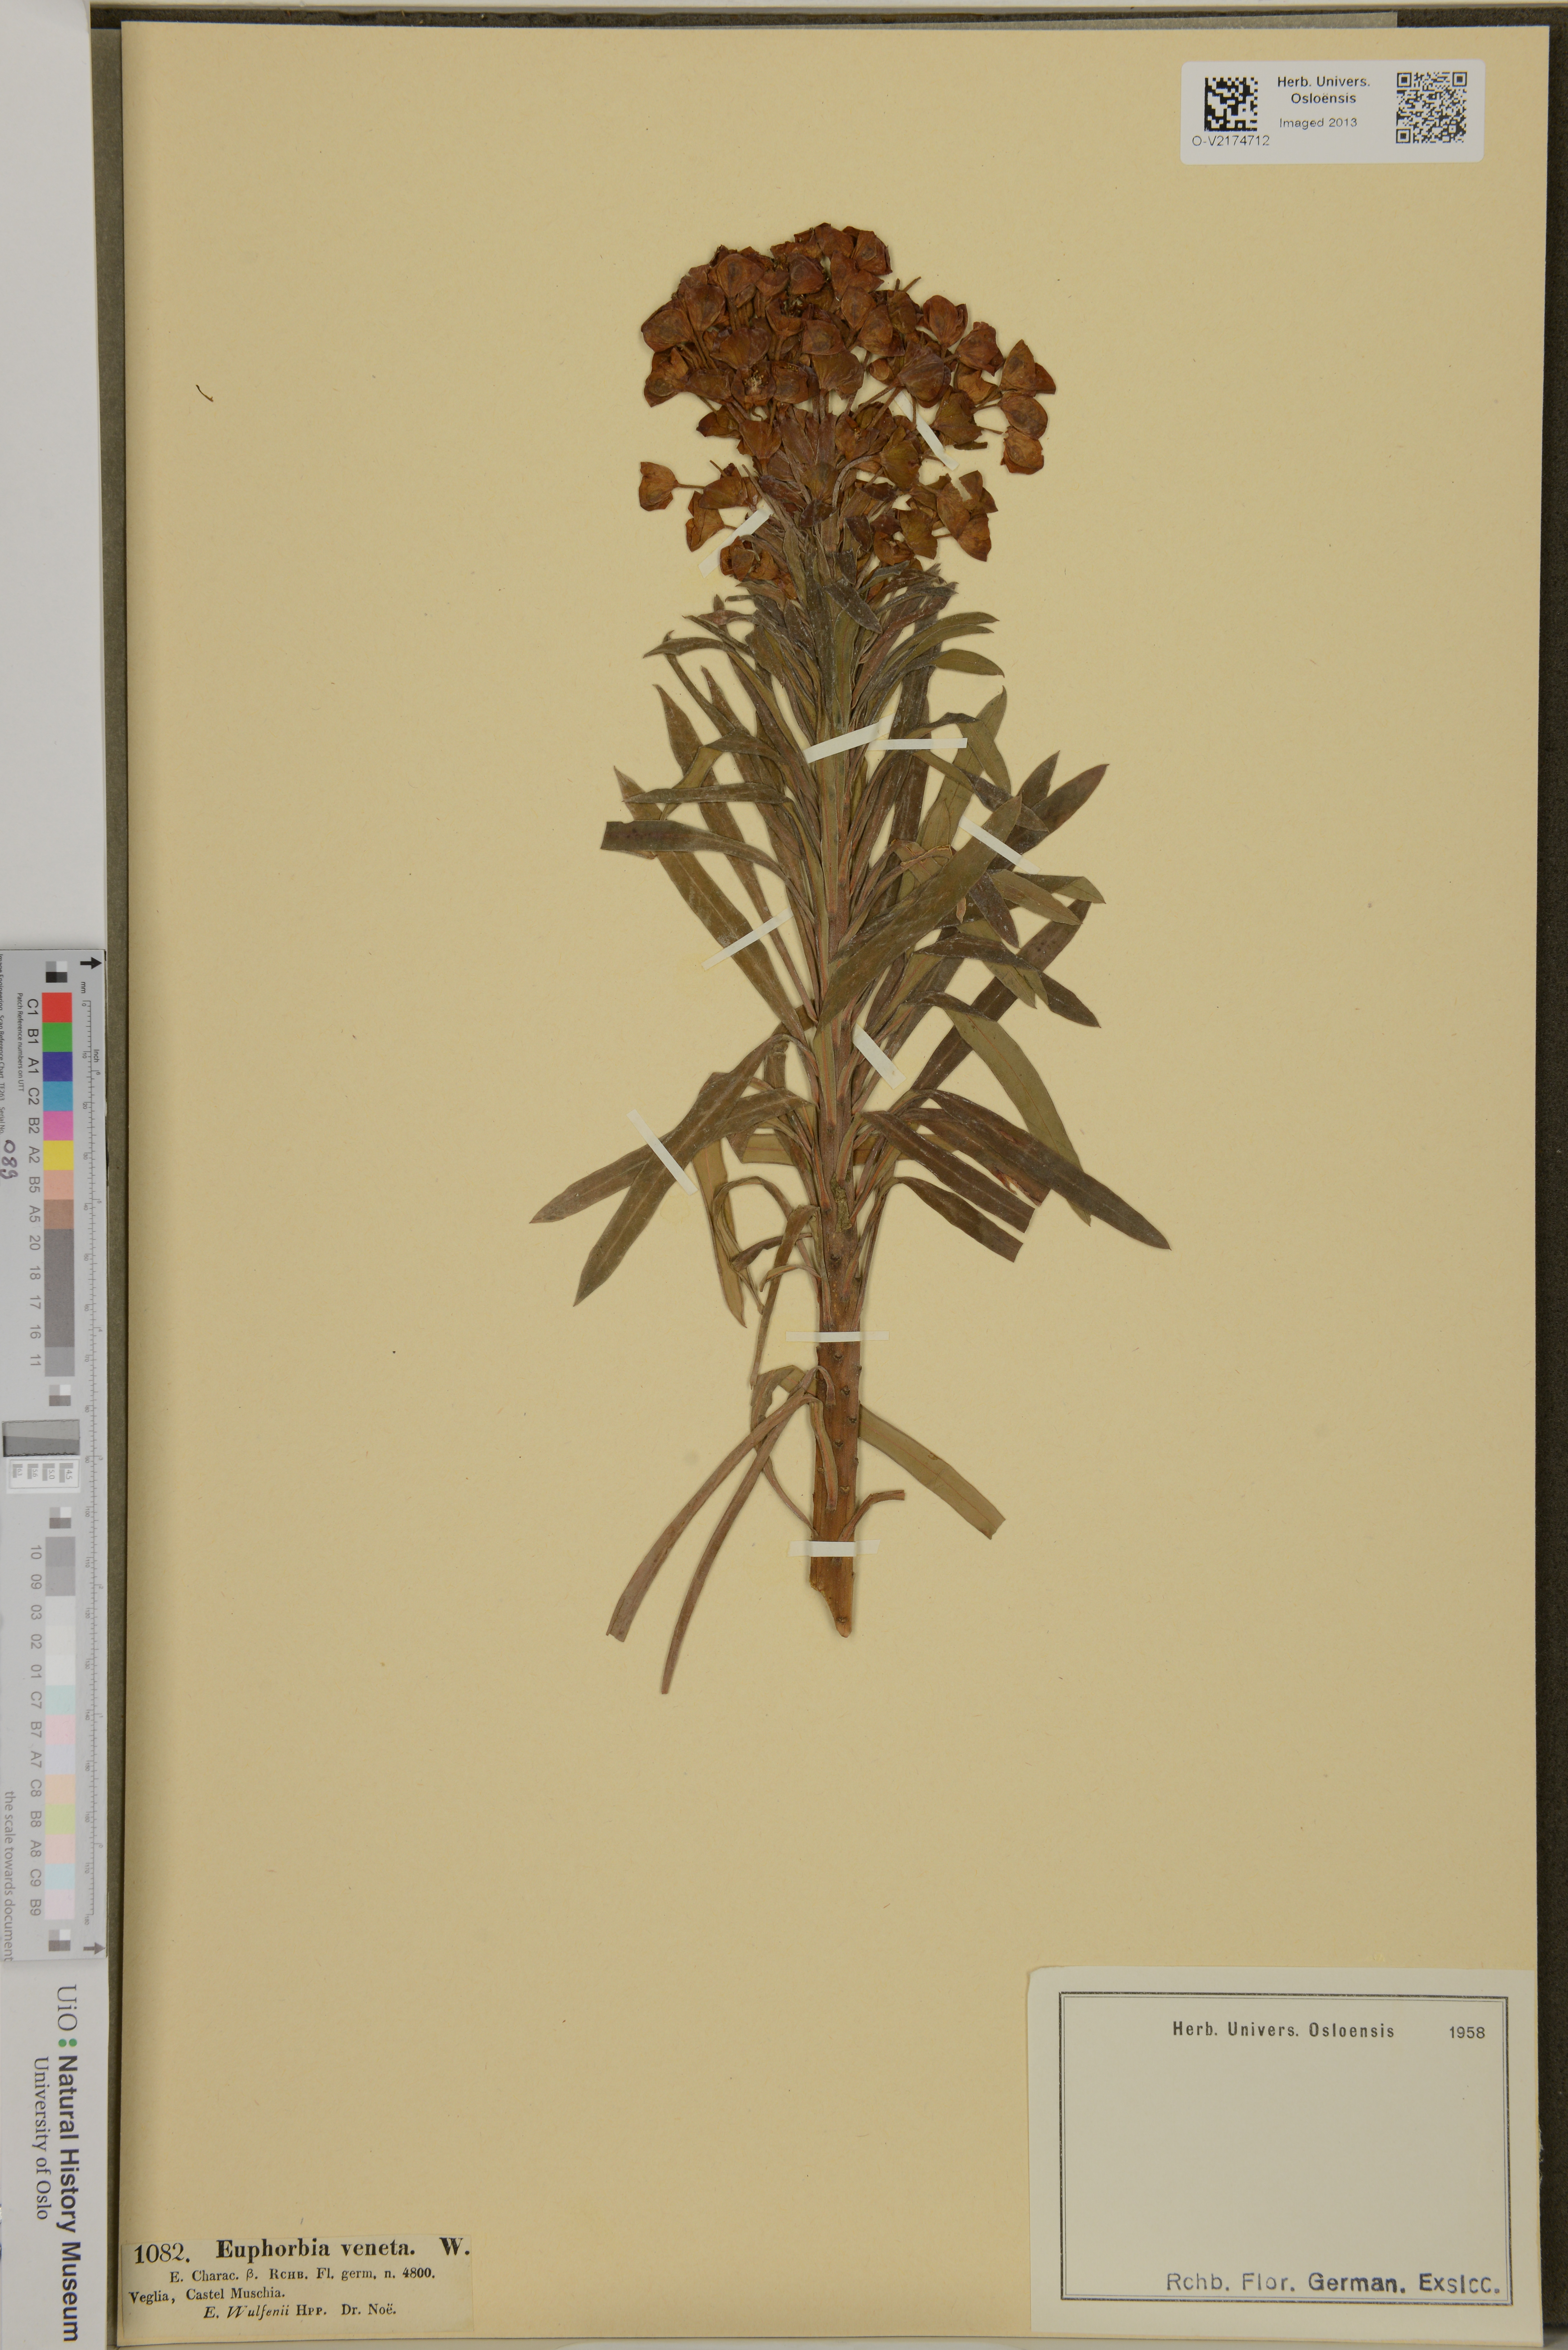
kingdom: Plantae
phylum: Tracheophyta
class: Magnoliopsida
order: Malpighiales
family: Euphorbiaceae
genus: Euphorbia
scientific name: Euphorbia veneta
